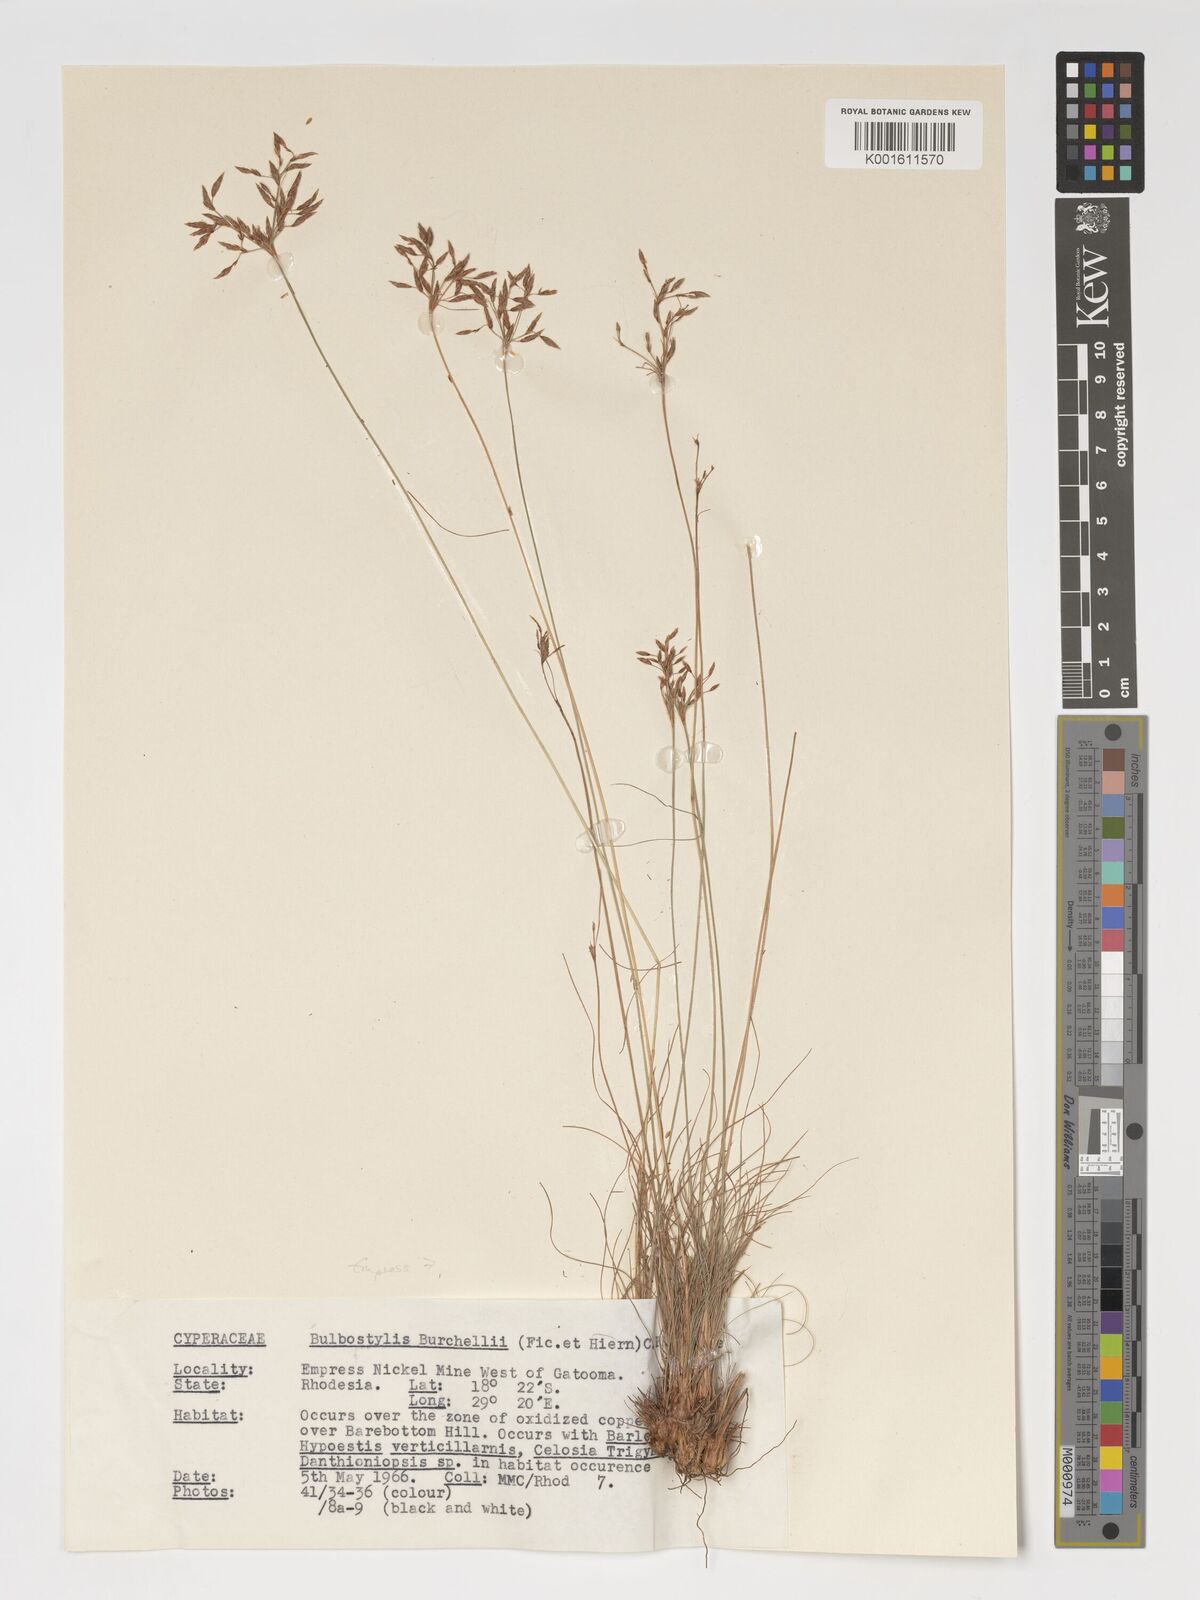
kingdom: Plantae
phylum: Tracheophyta
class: Liliopsida
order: Poales
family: Cyperaceae
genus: Bulbostylis
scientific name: Bulbostylis burchellii
